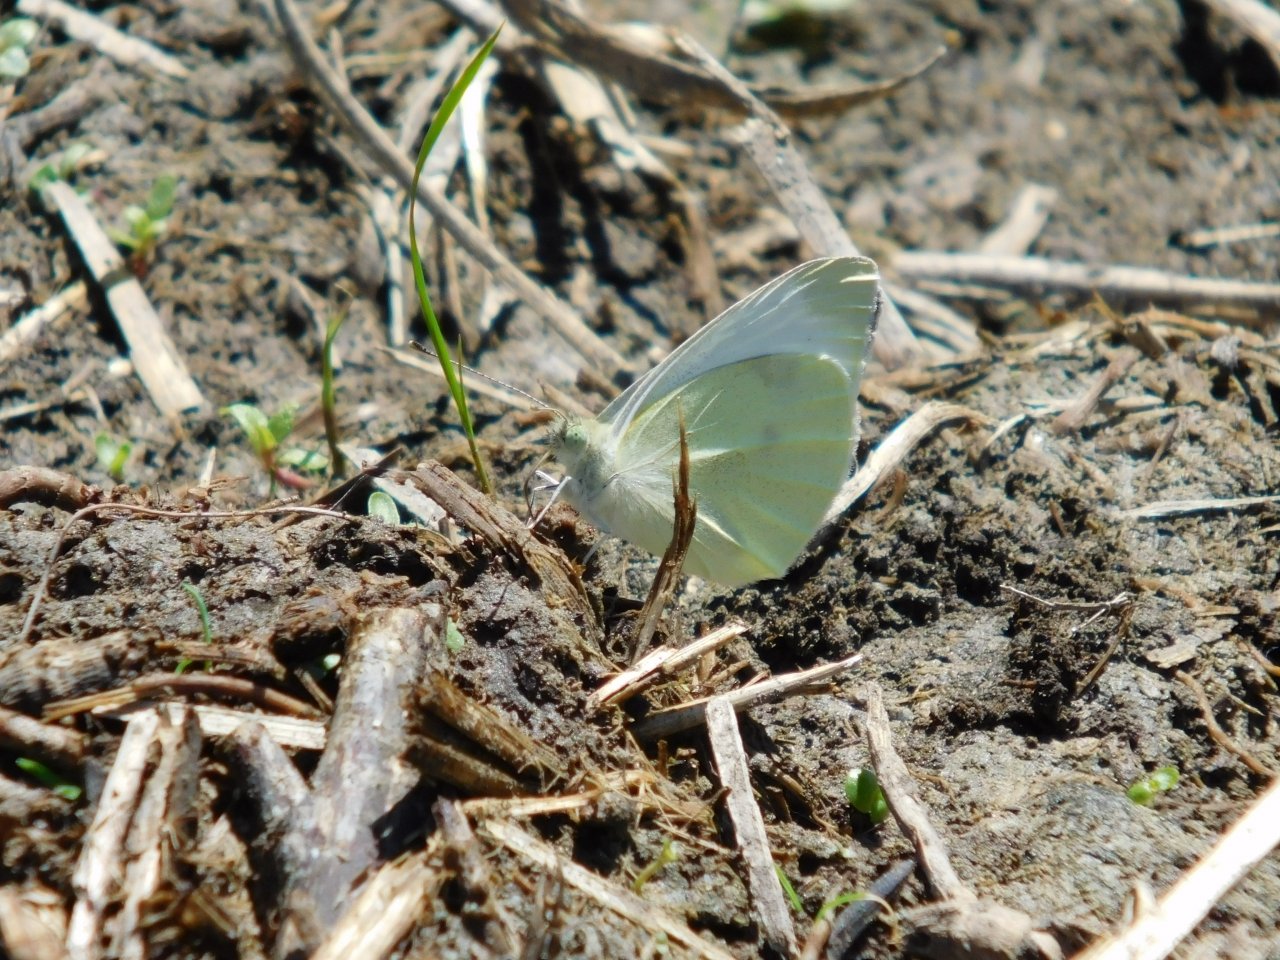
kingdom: Animalia
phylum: Arthropoda
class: Insecta
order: Lepidoptera
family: Pieridae
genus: Pieris
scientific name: Pieris rapae
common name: Cabbage White
